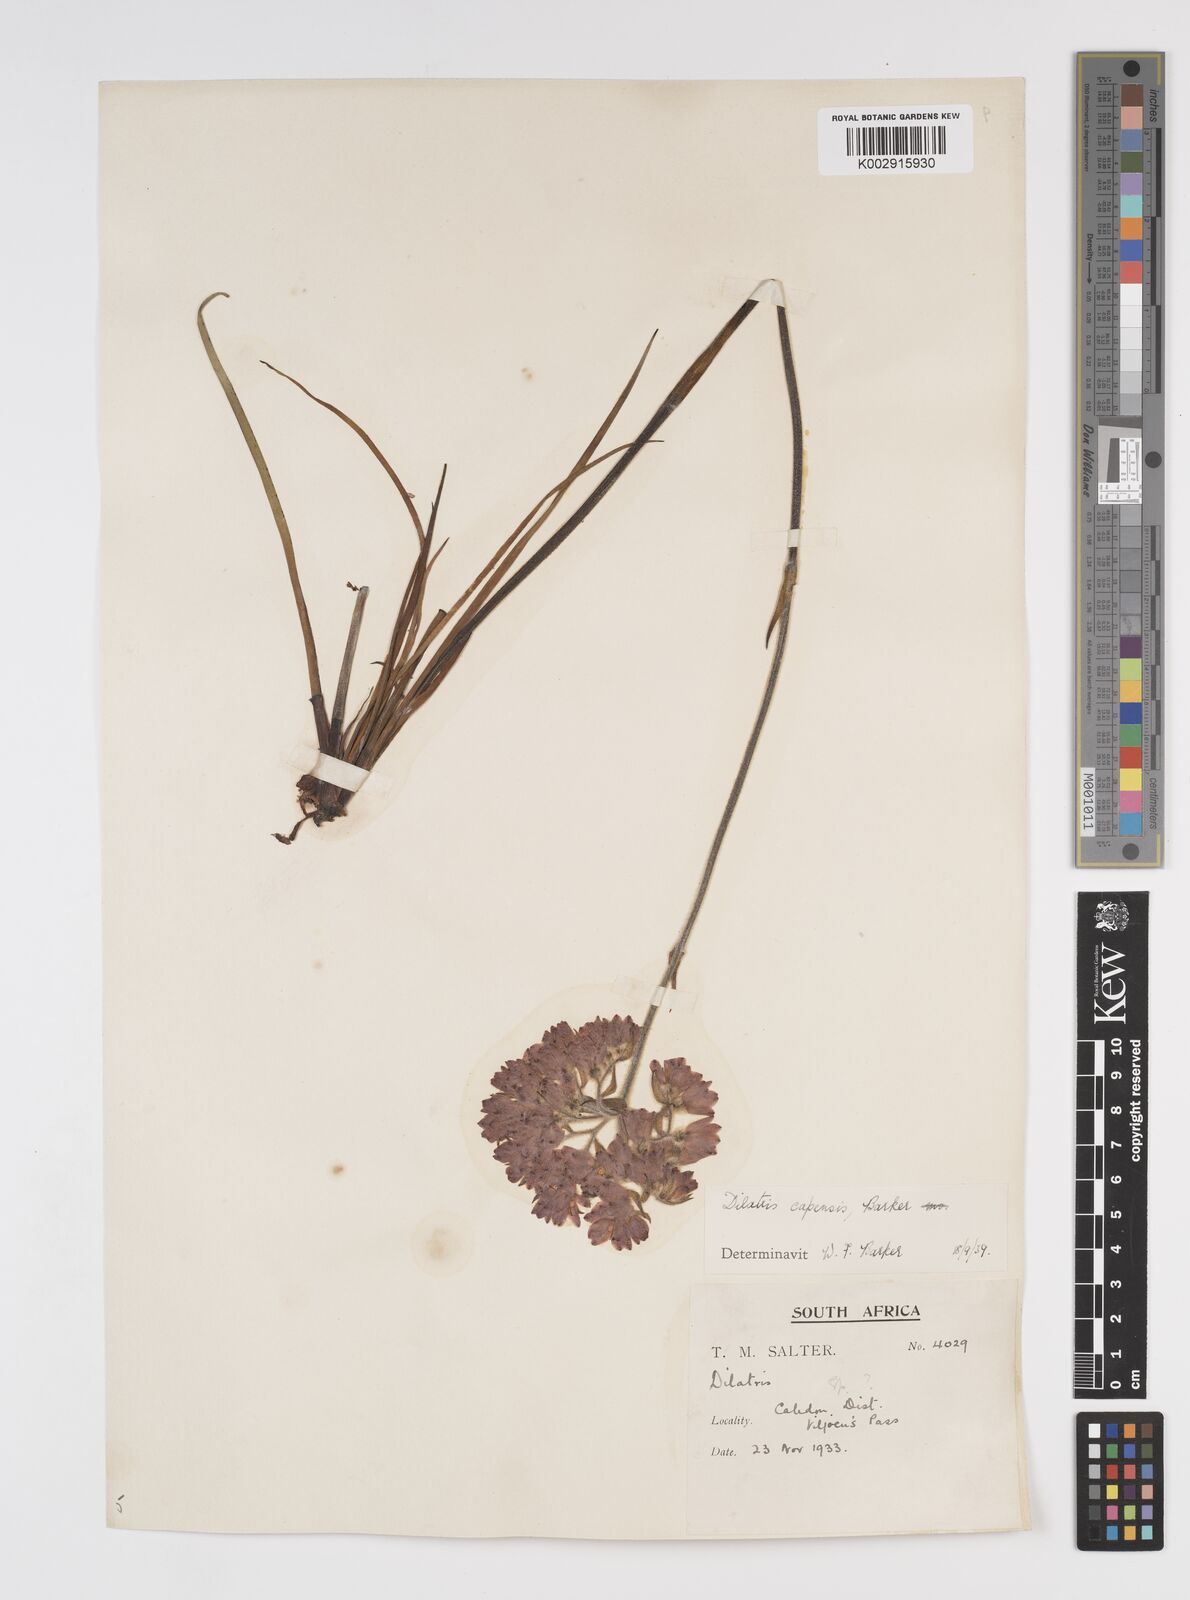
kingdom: Plantae
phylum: Tracheophyta
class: Liliopsida
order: Commelinales
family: Haemodoraceae
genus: Dilatris
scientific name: Dilatris pillansii
